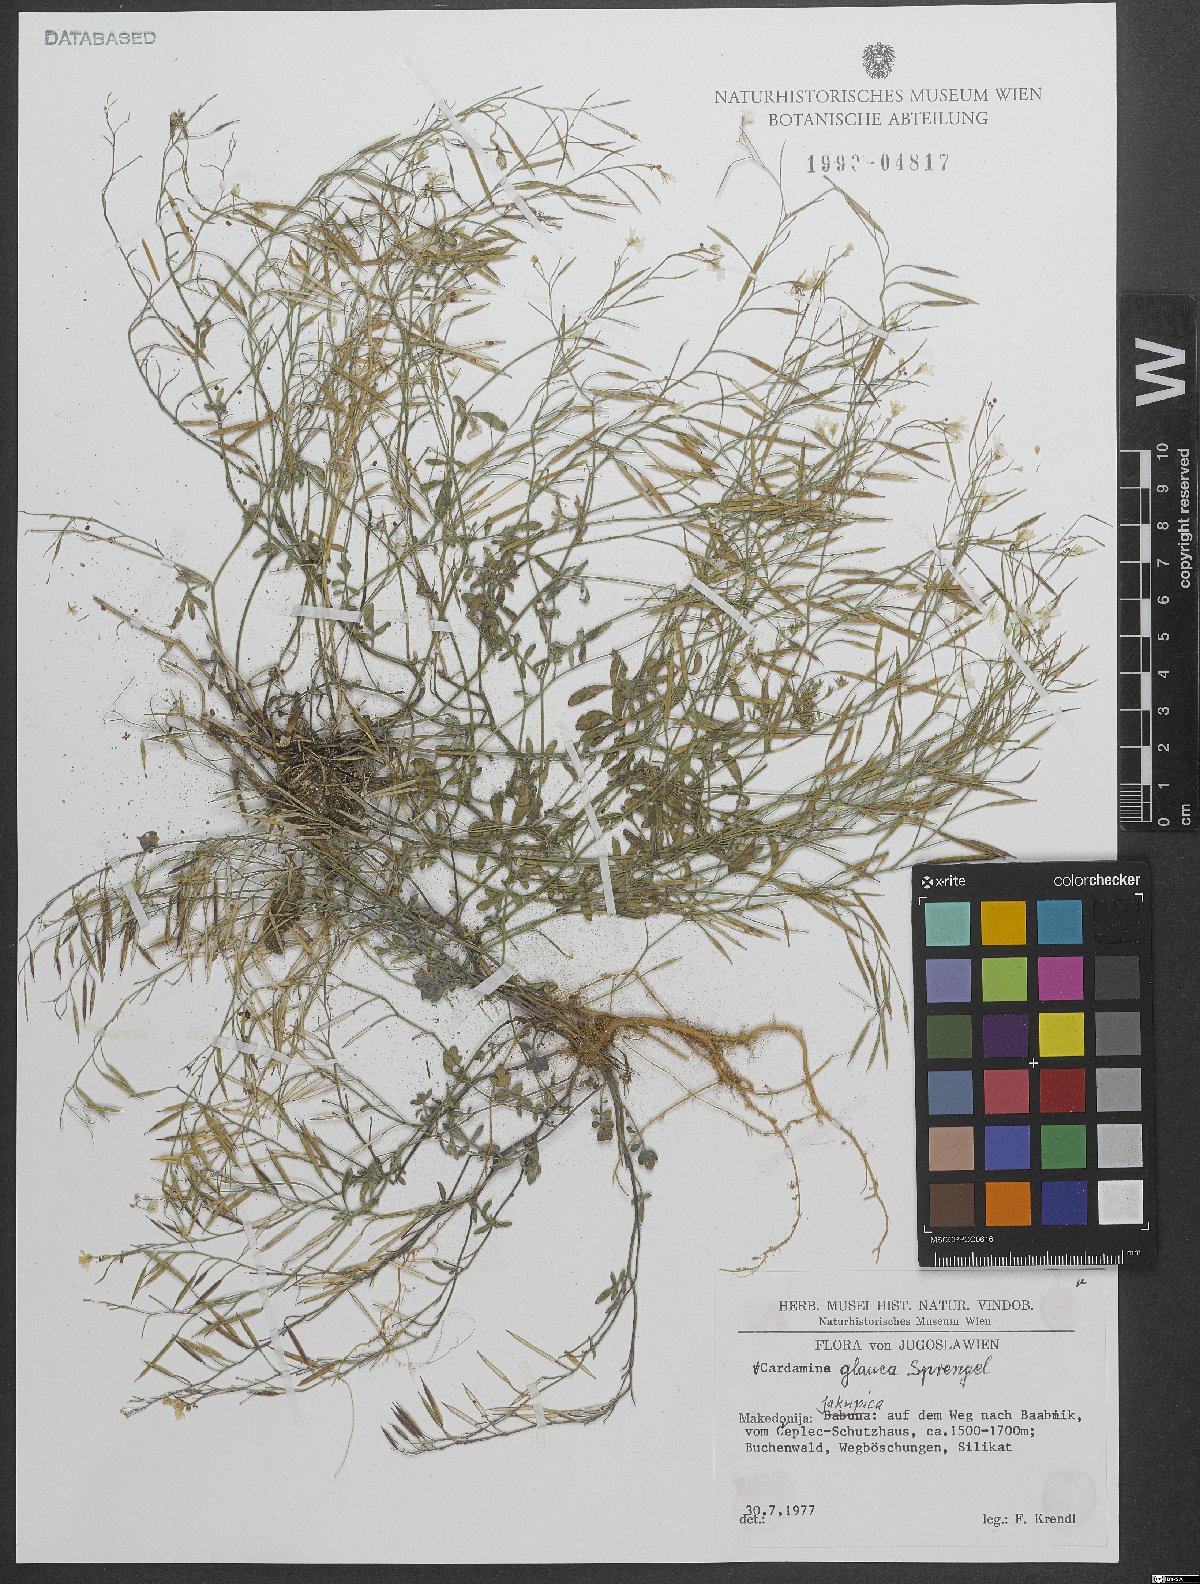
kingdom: Plantae
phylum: Tracheophyta
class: Magnoliopsida
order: Brassicales
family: Brassicaceae
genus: Cardamine
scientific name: Cardamine glauca
